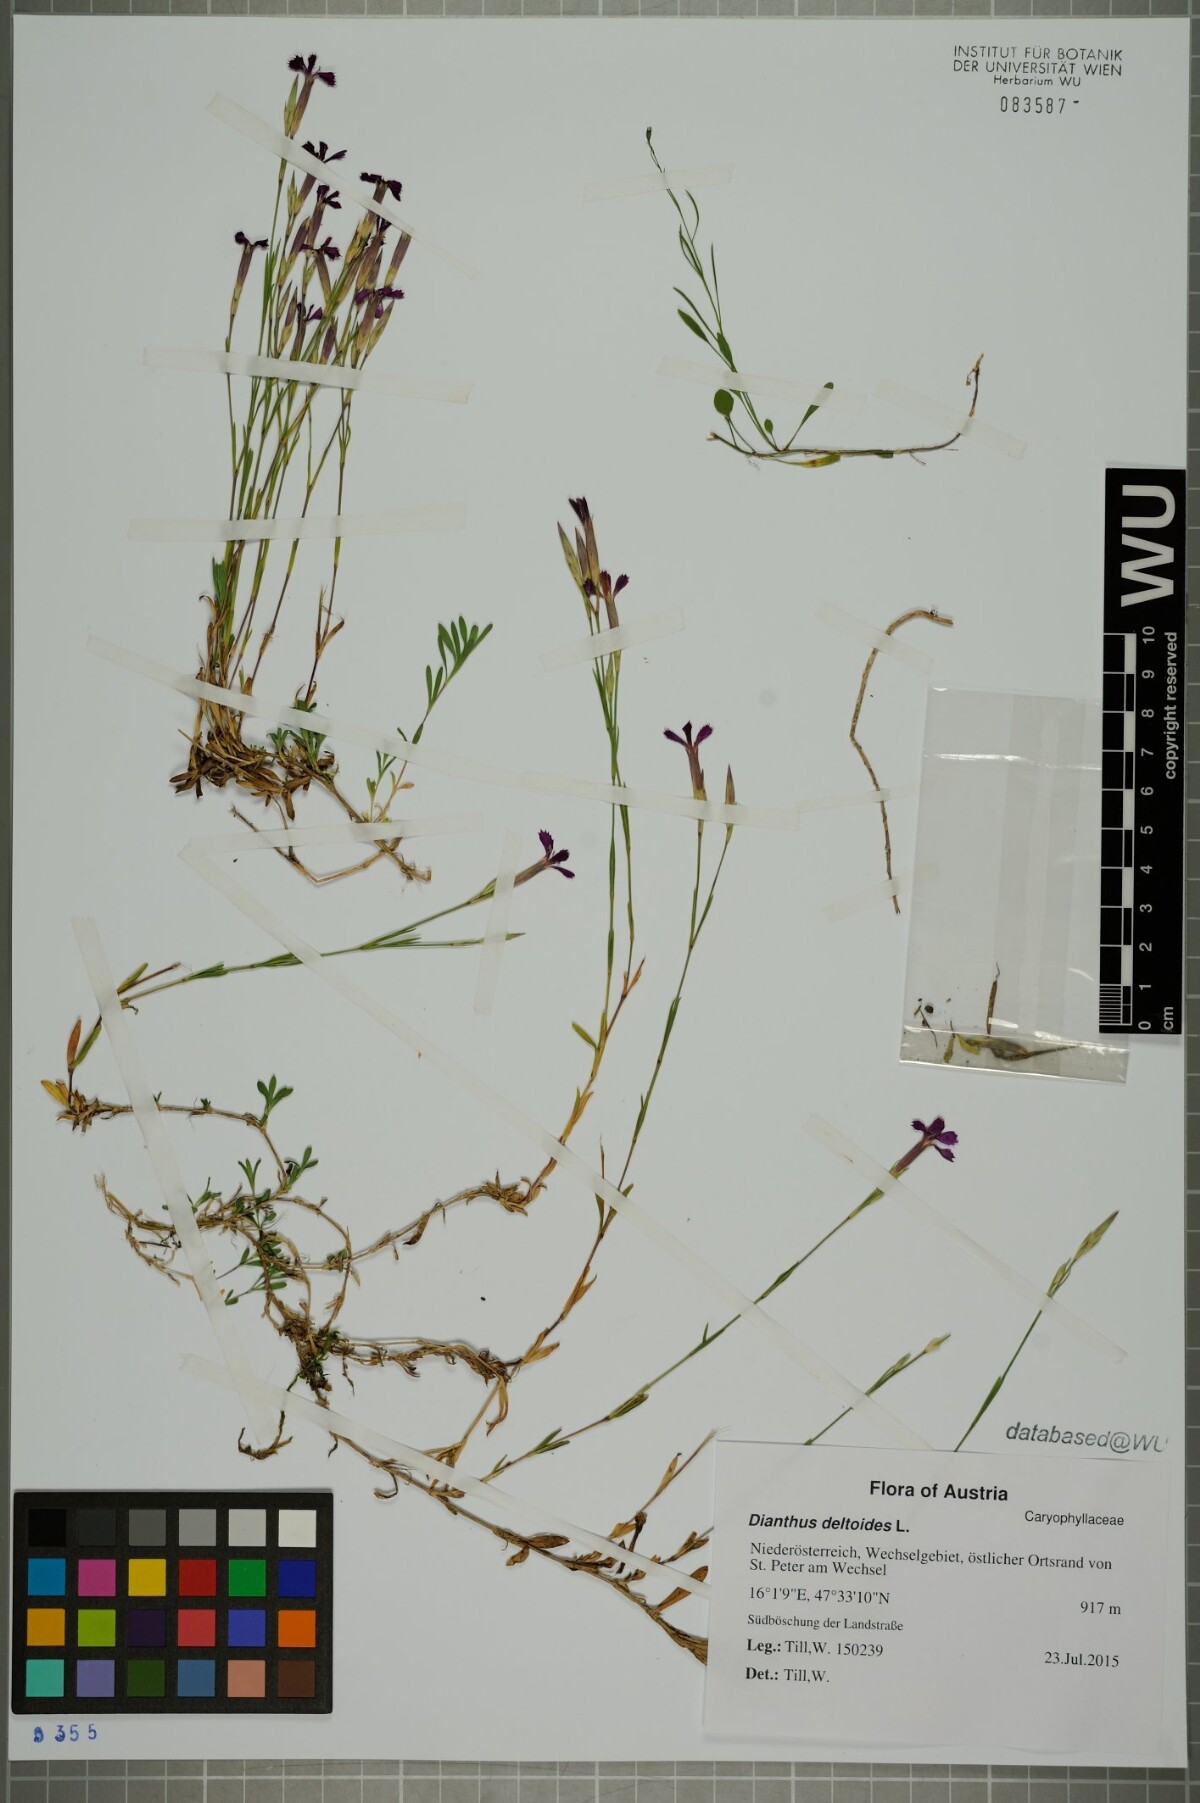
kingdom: Plantae
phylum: Tracheophyta
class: Magnoliopsida
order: Caryophyllales
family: Caryophyllaceae
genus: Dianthus
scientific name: Dianthus deltoides
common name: Maiden pink
